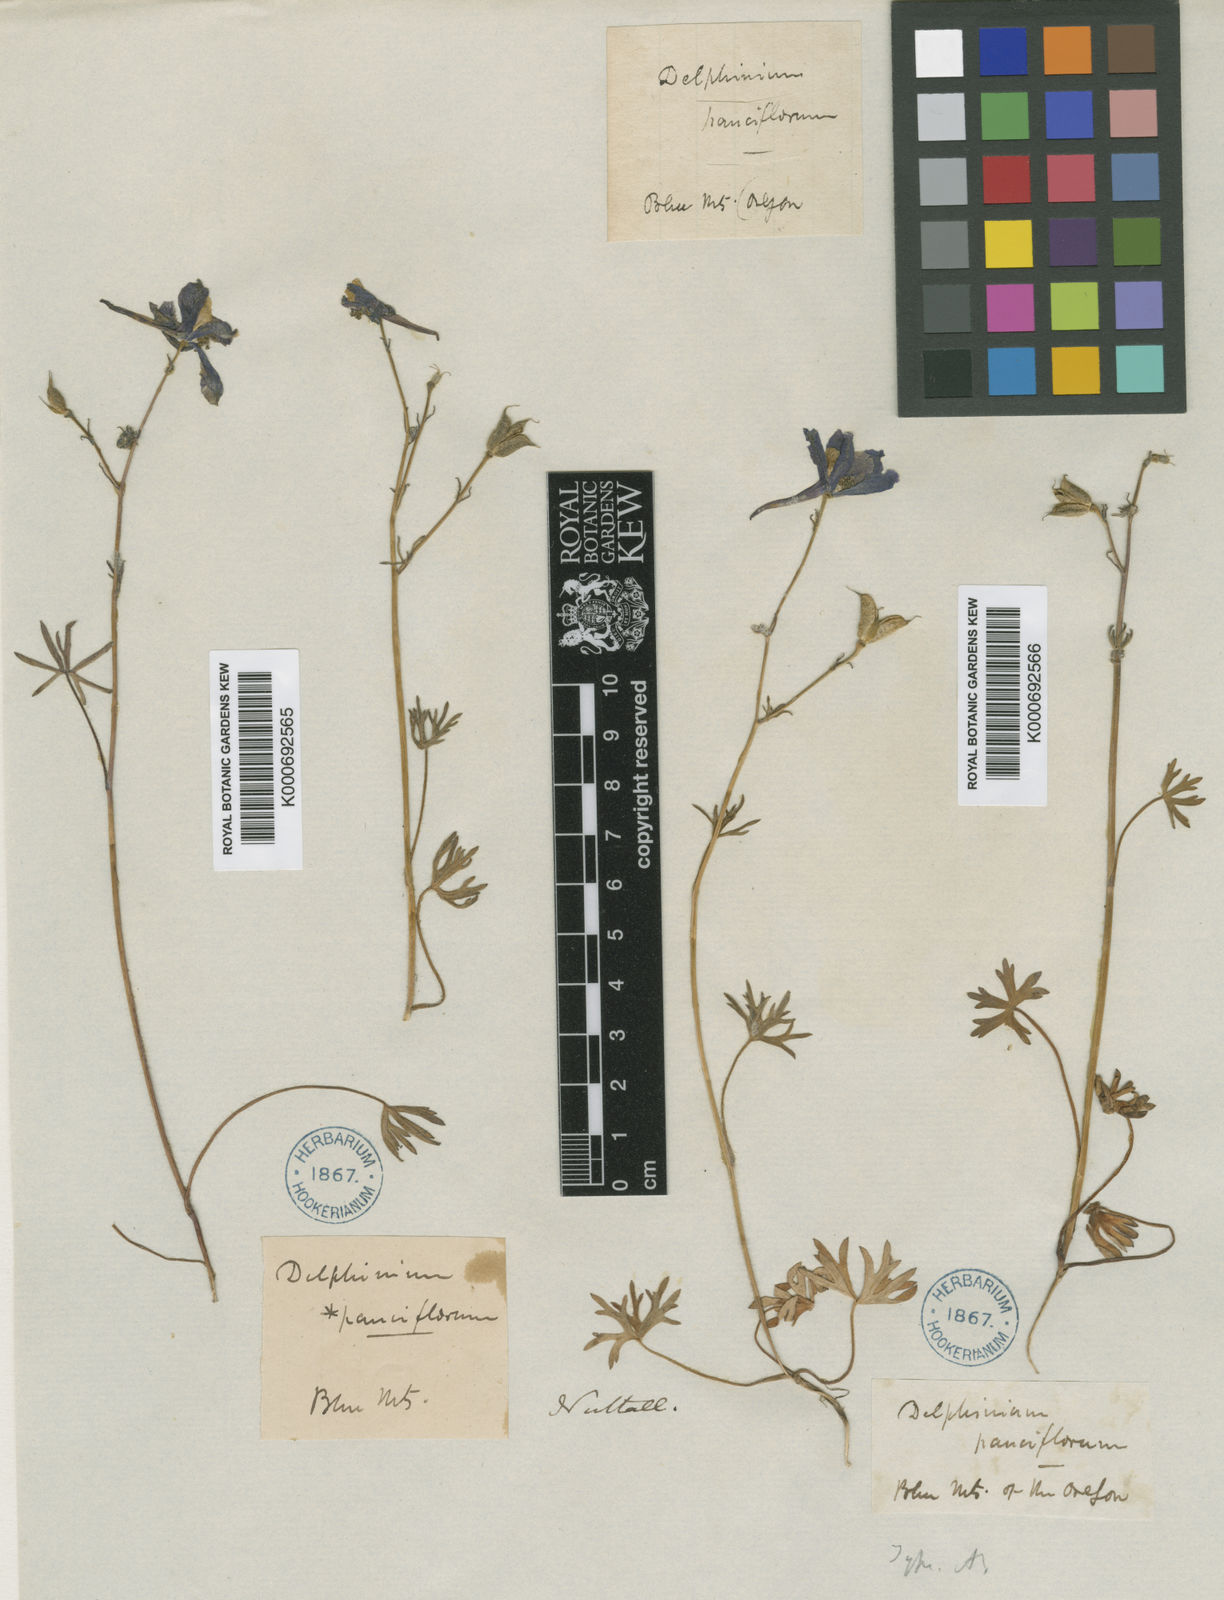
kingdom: Plantae
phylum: Tracheophyta
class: Magnoliopsida
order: Ranunculales
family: Ranunculaceae
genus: Delphinium
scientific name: Delphinium
